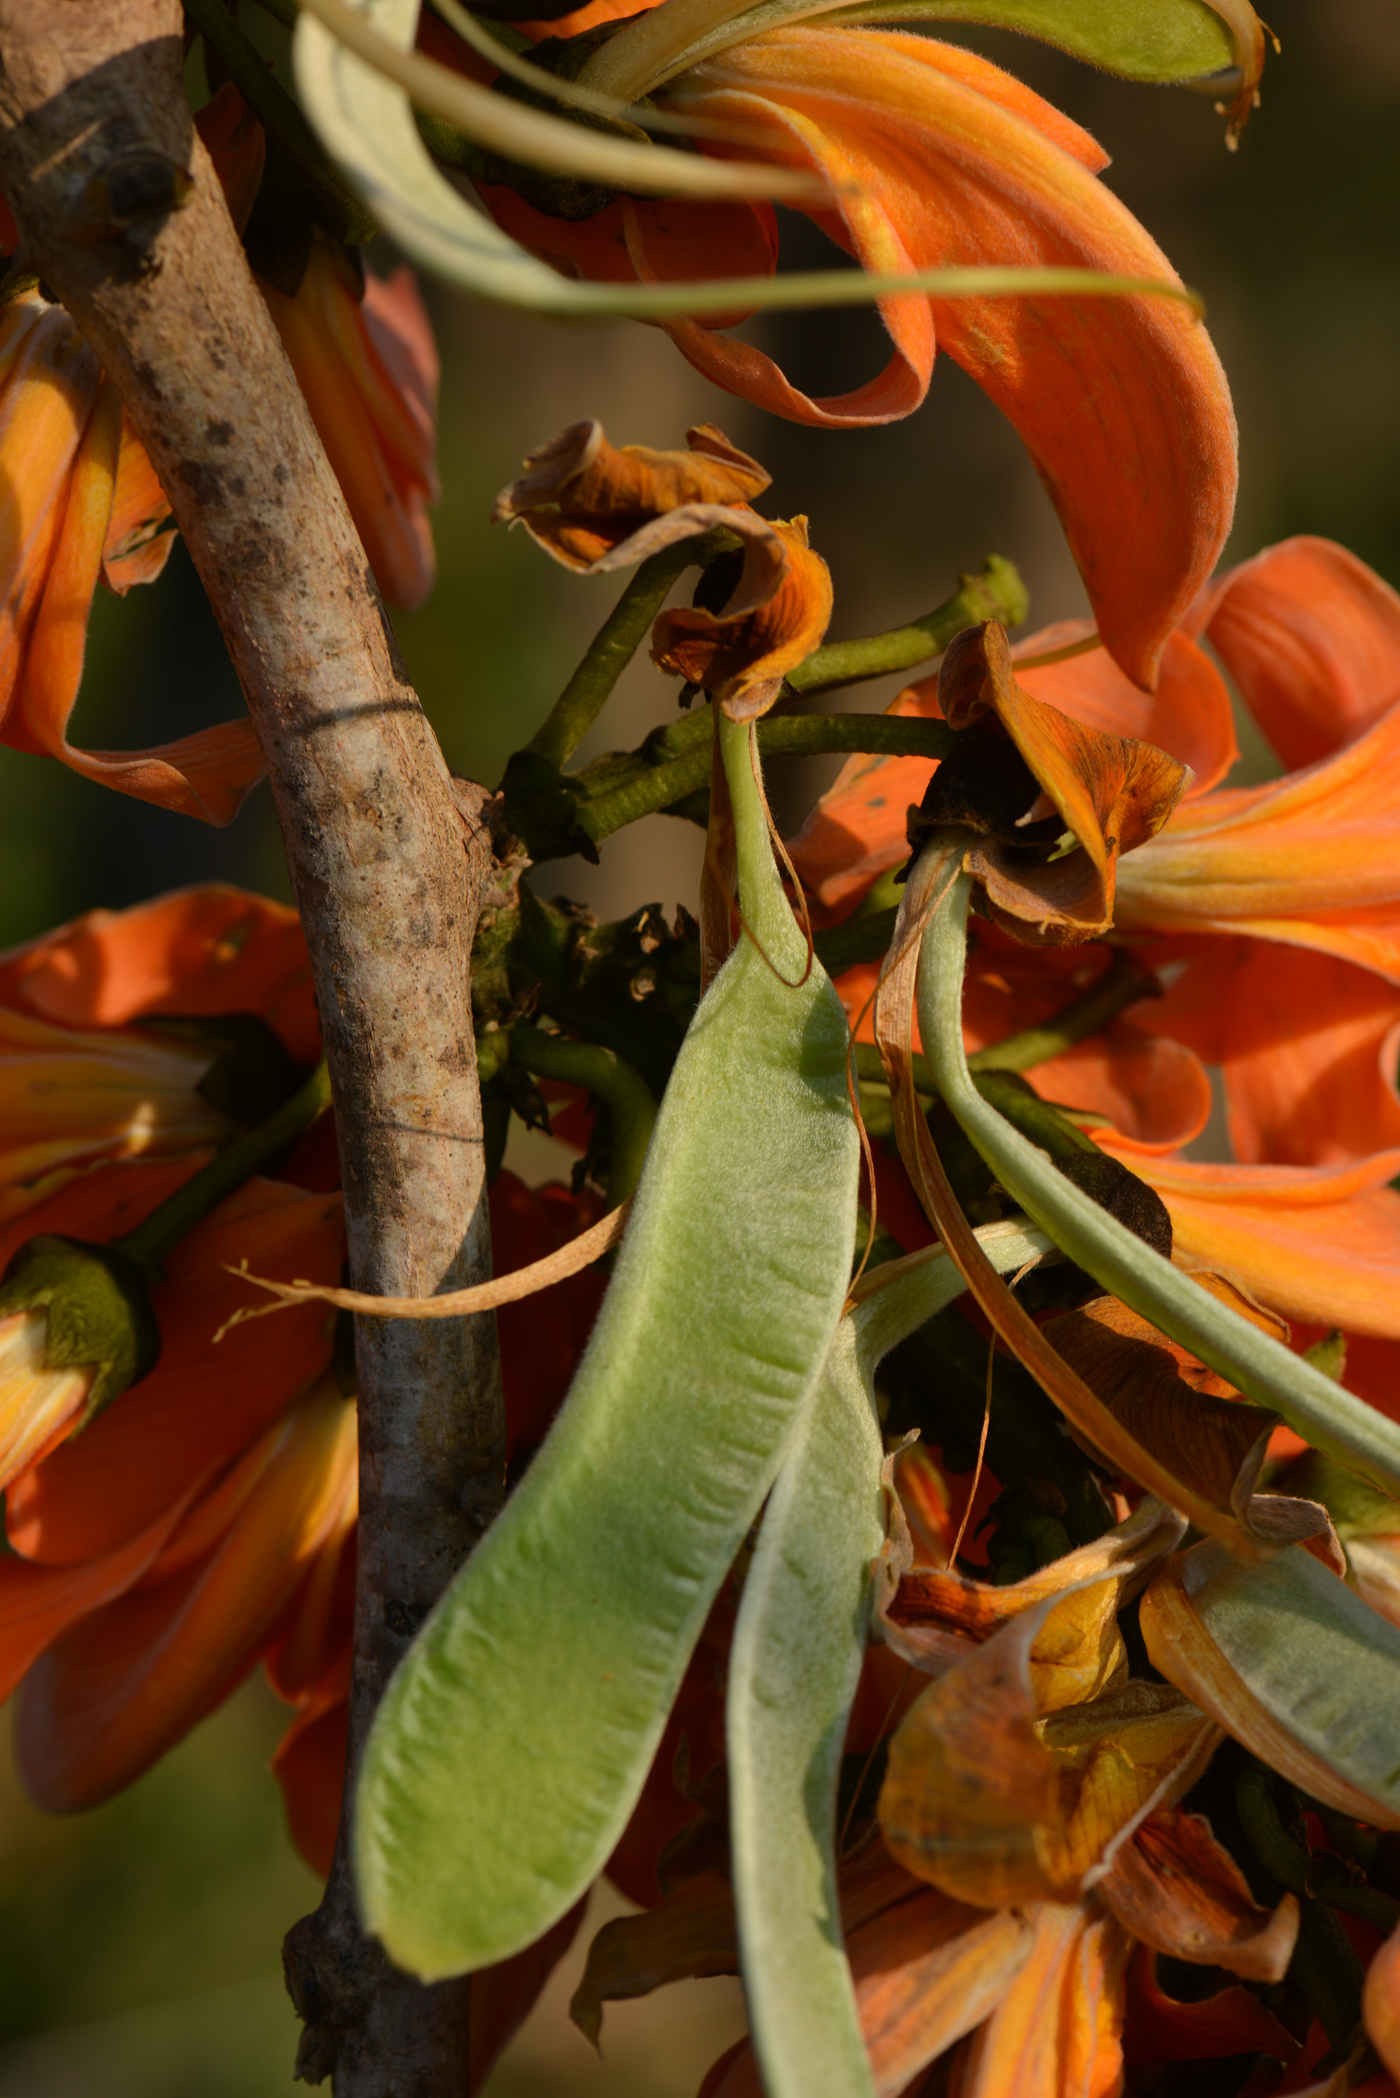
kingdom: Plantae
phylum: Tracheophyta
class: Magnoliopsida
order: Fabales
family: Fabaceae
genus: Butea
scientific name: Butea monosperma
